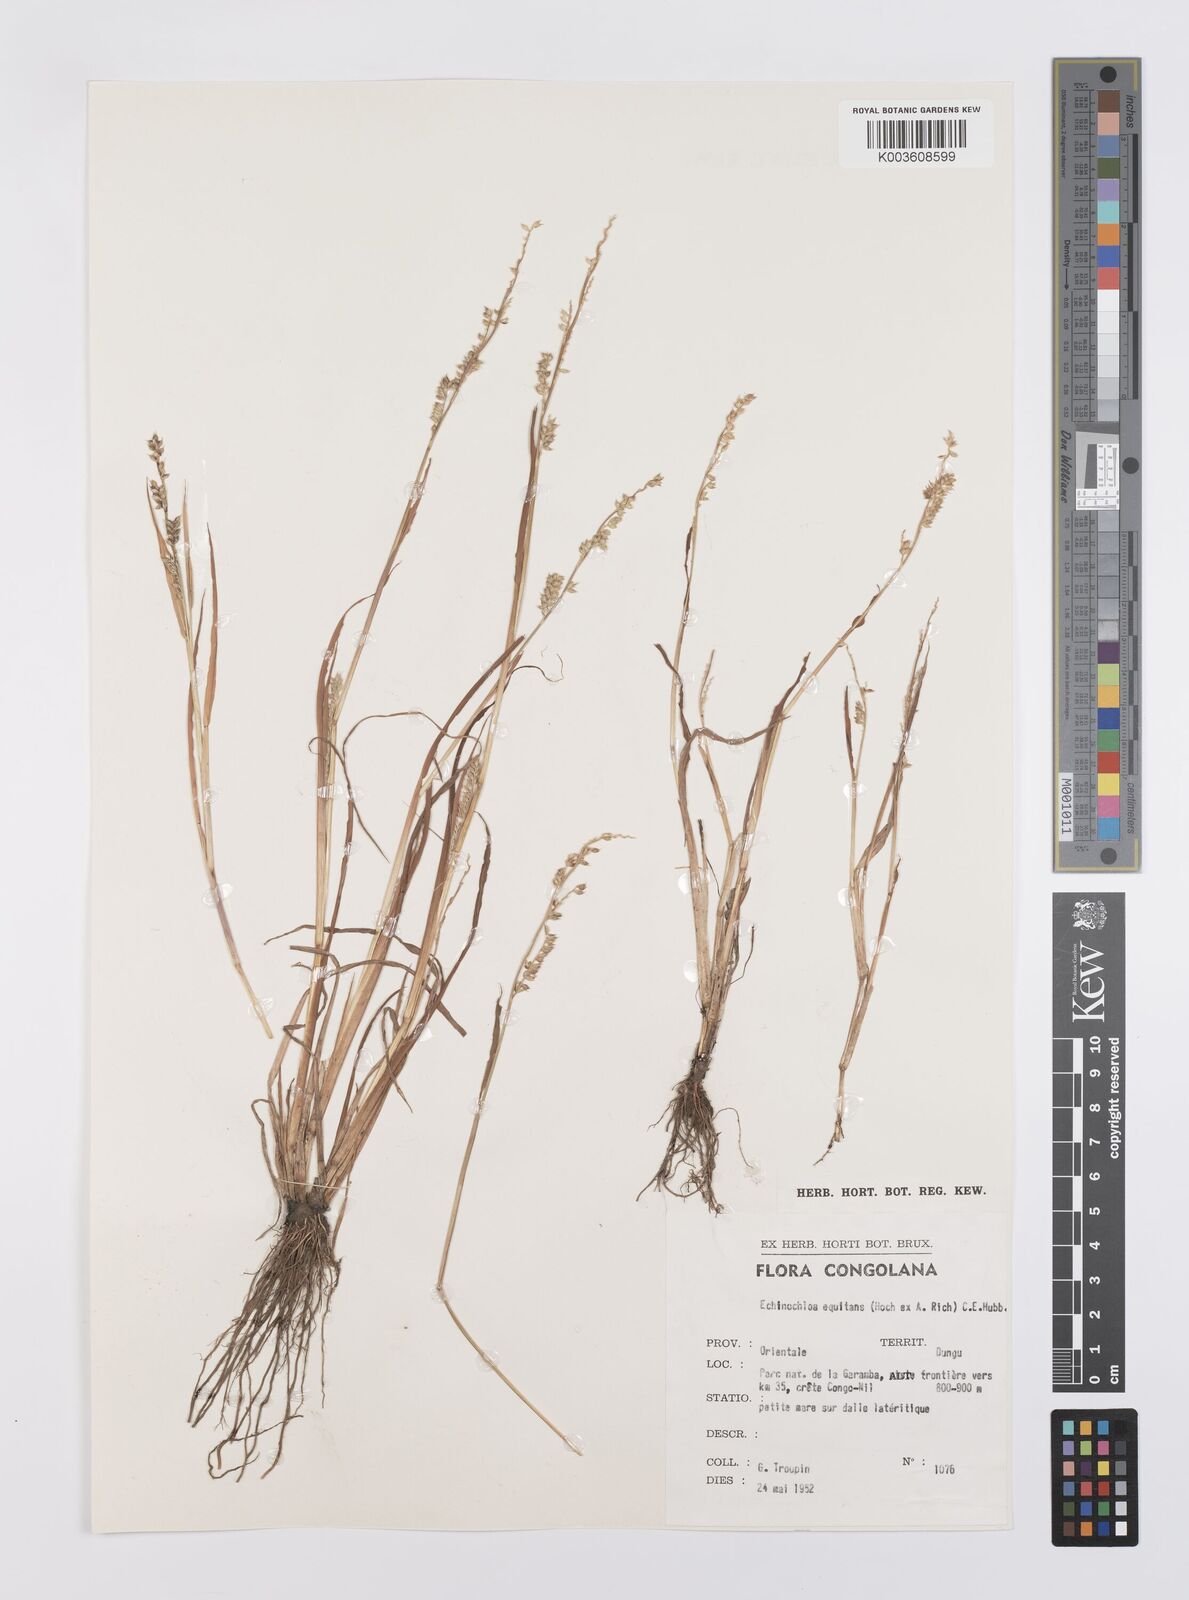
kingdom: Plantae
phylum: Tracheophyta
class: Liliopsida
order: Poales
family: Poaceae
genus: Echinochloa
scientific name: Echinochloa colonum
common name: Jungle rice
